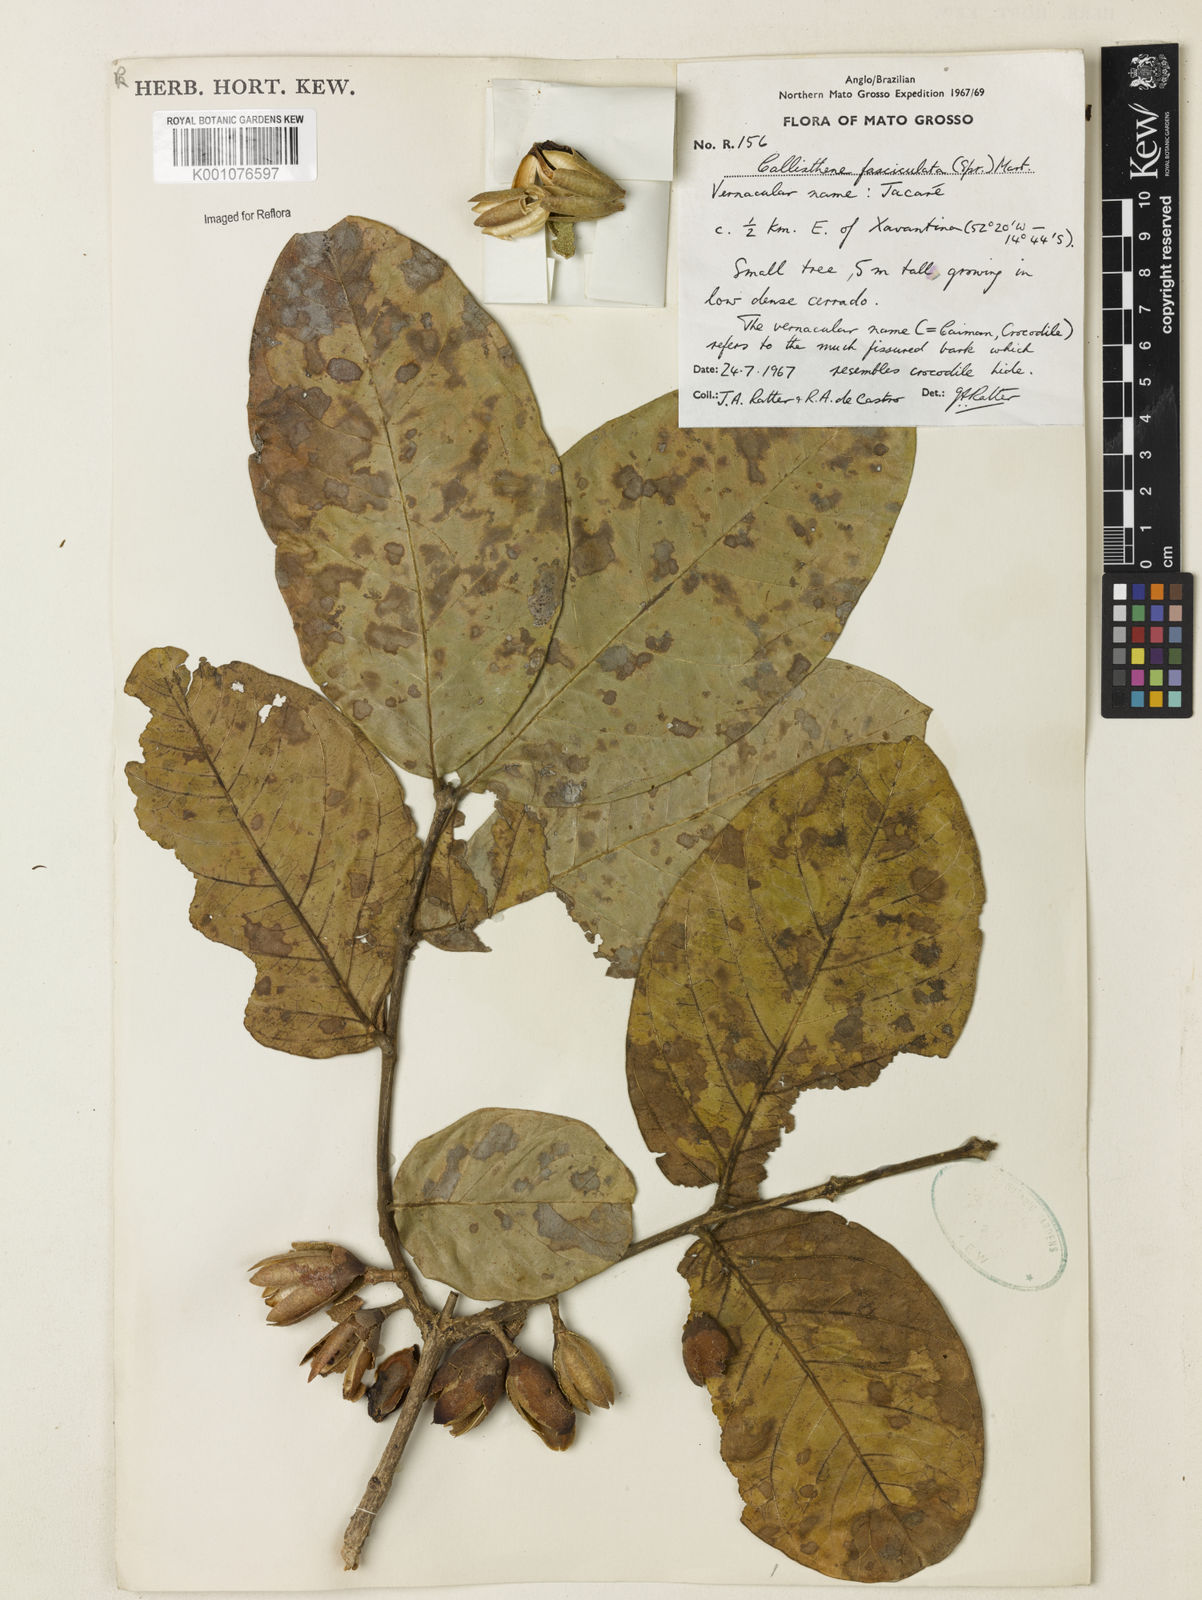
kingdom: Plantae
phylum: Tracheophyta
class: Magnoliopsida
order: Myrtales
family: Vochysiaceae
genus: Callisthene
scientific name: Callisthene fasciculata
